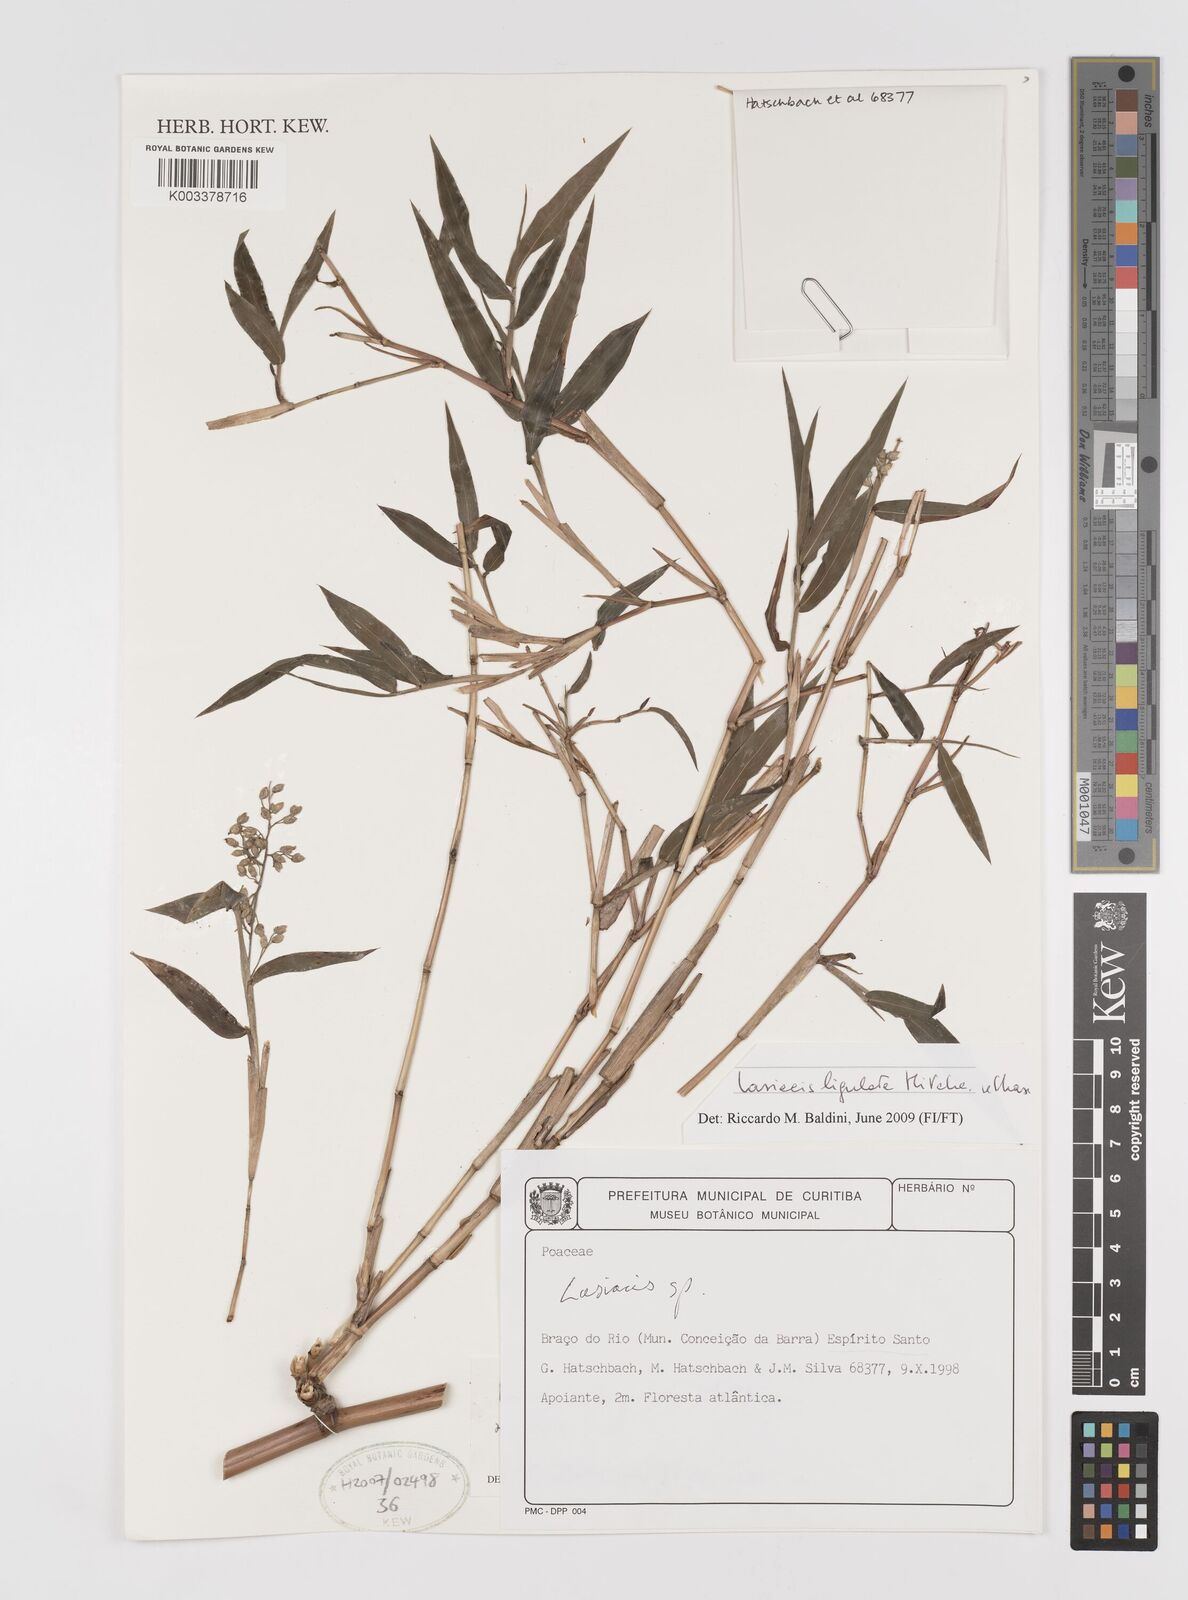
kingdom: Plantae
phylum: Tracheophyta
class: Liliopsida
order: Poales
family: Poaceae
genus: Lasiacis
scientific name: Lasiacis
